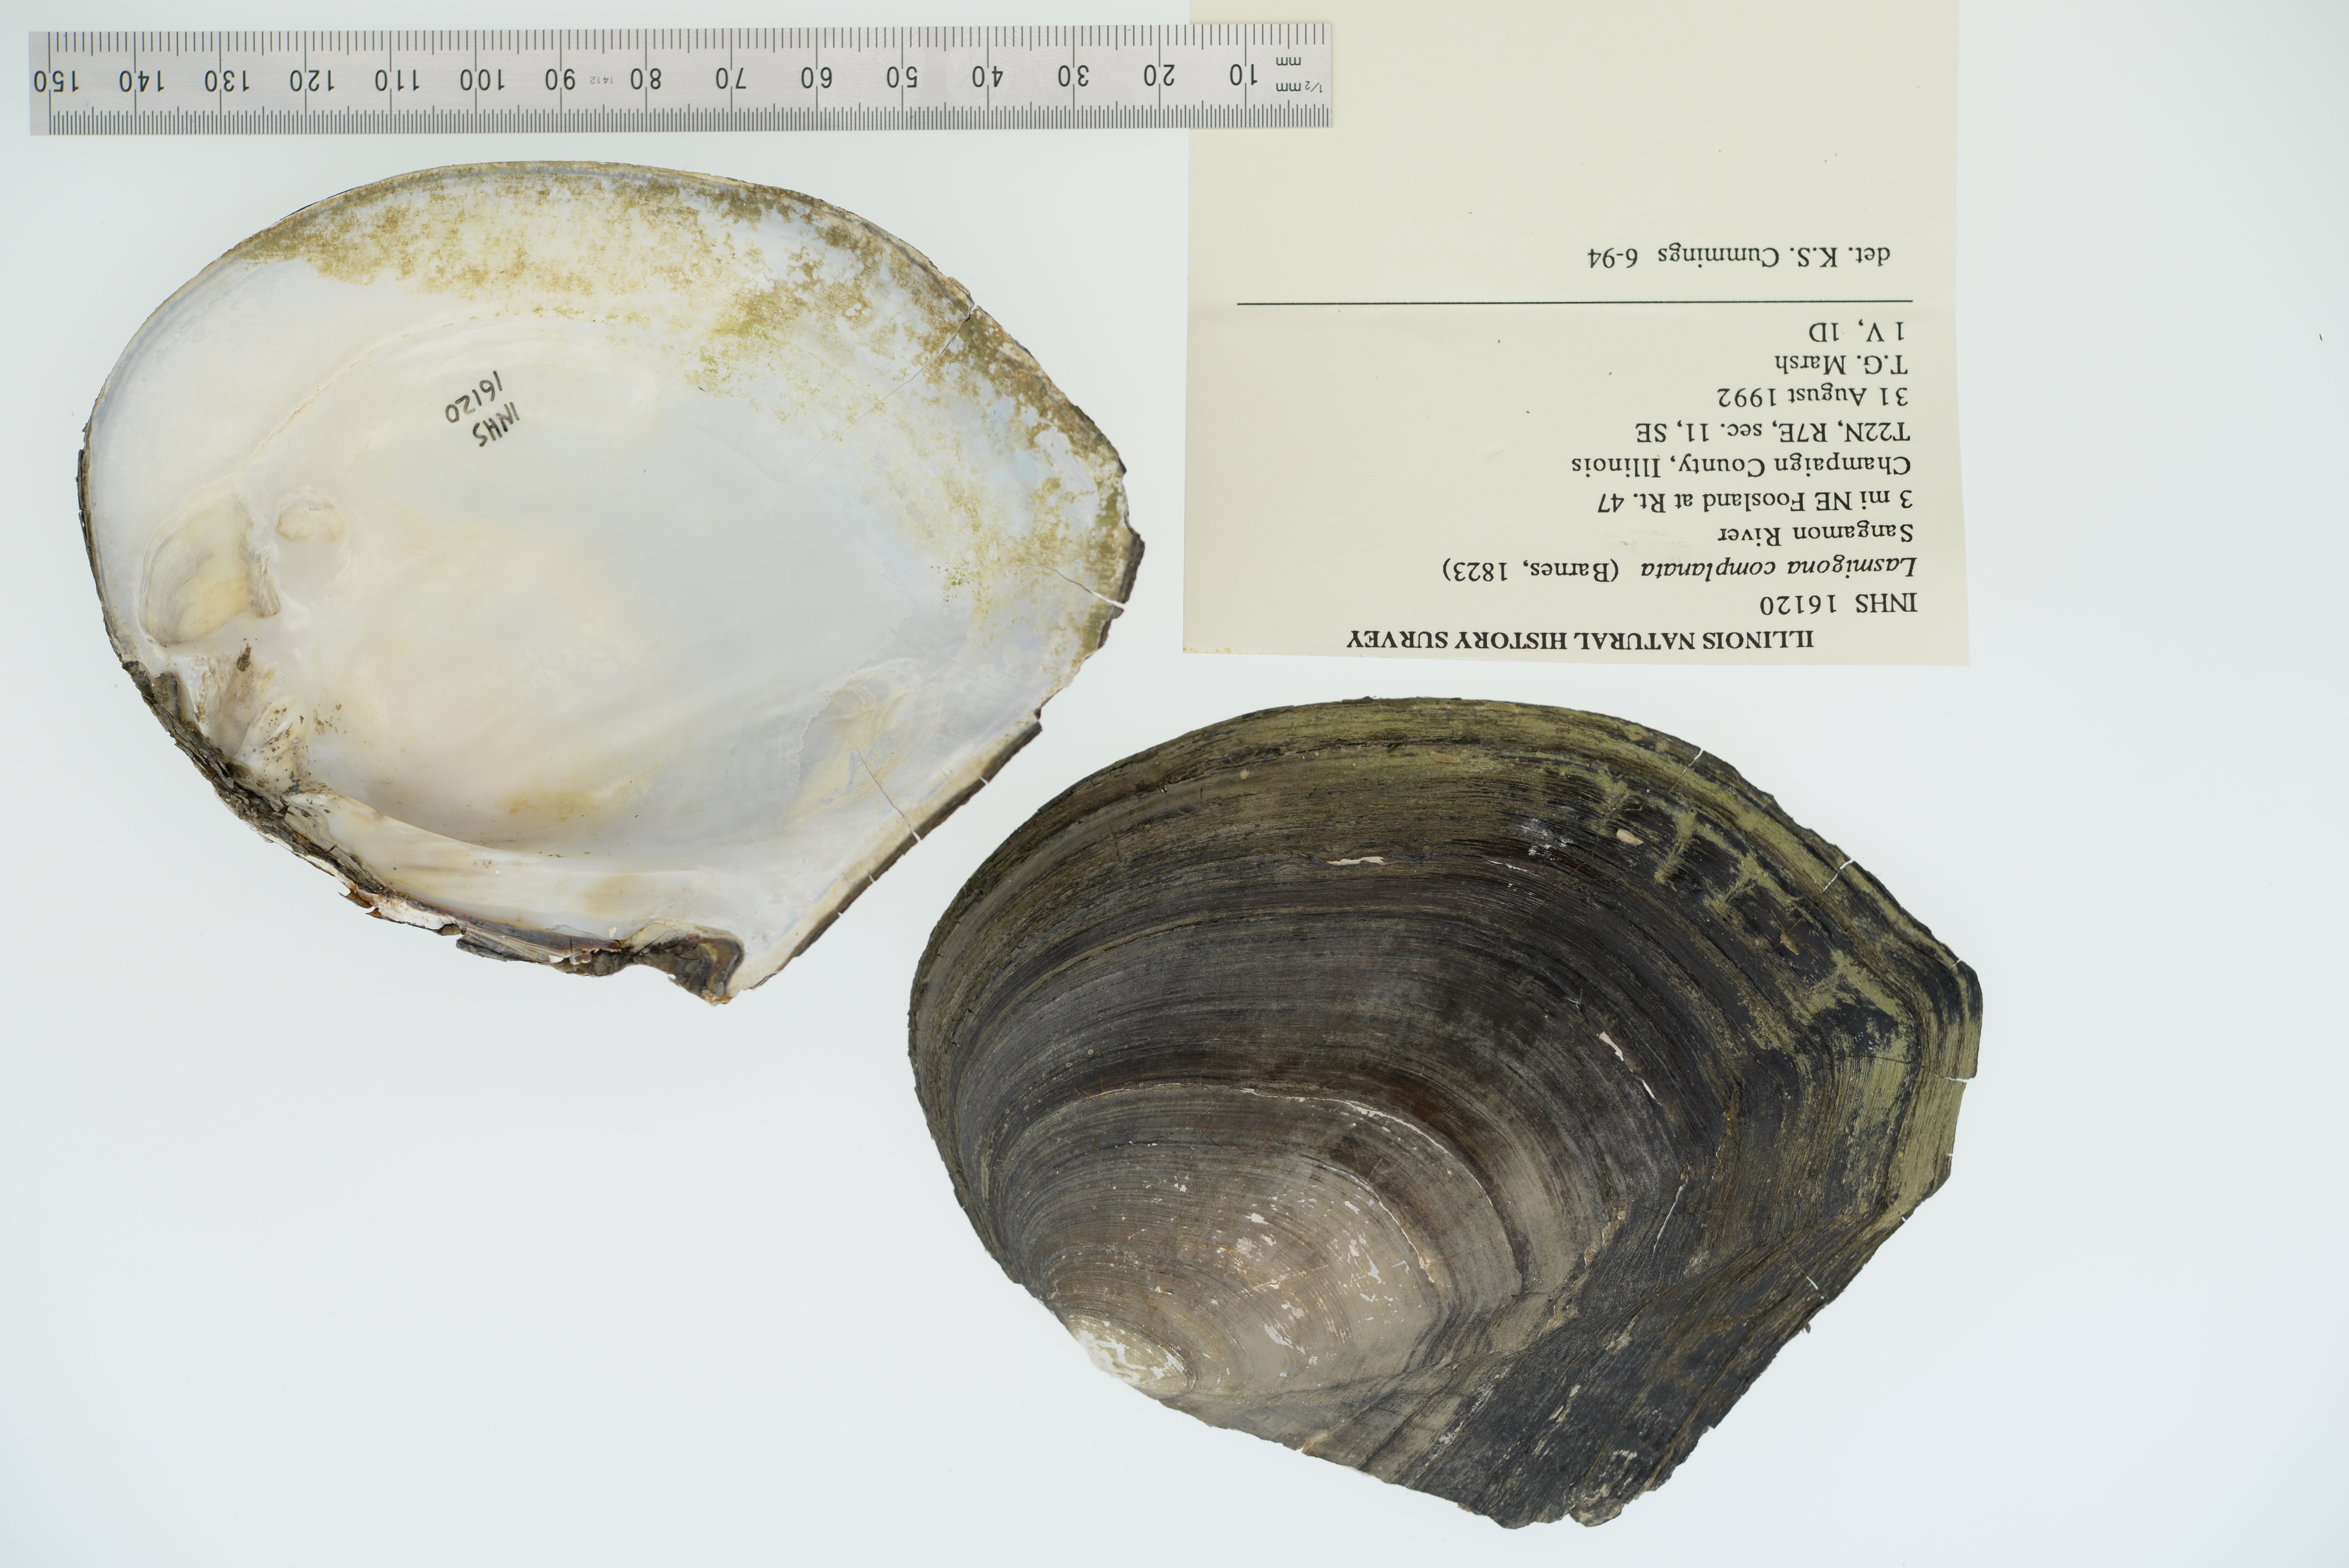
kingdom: Animalia
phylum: Mollusca
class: Bivalvia
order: Unionida
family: Unionidae
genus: Lasmigona
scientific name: Lasmigona complanata
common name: White heelsplitter
